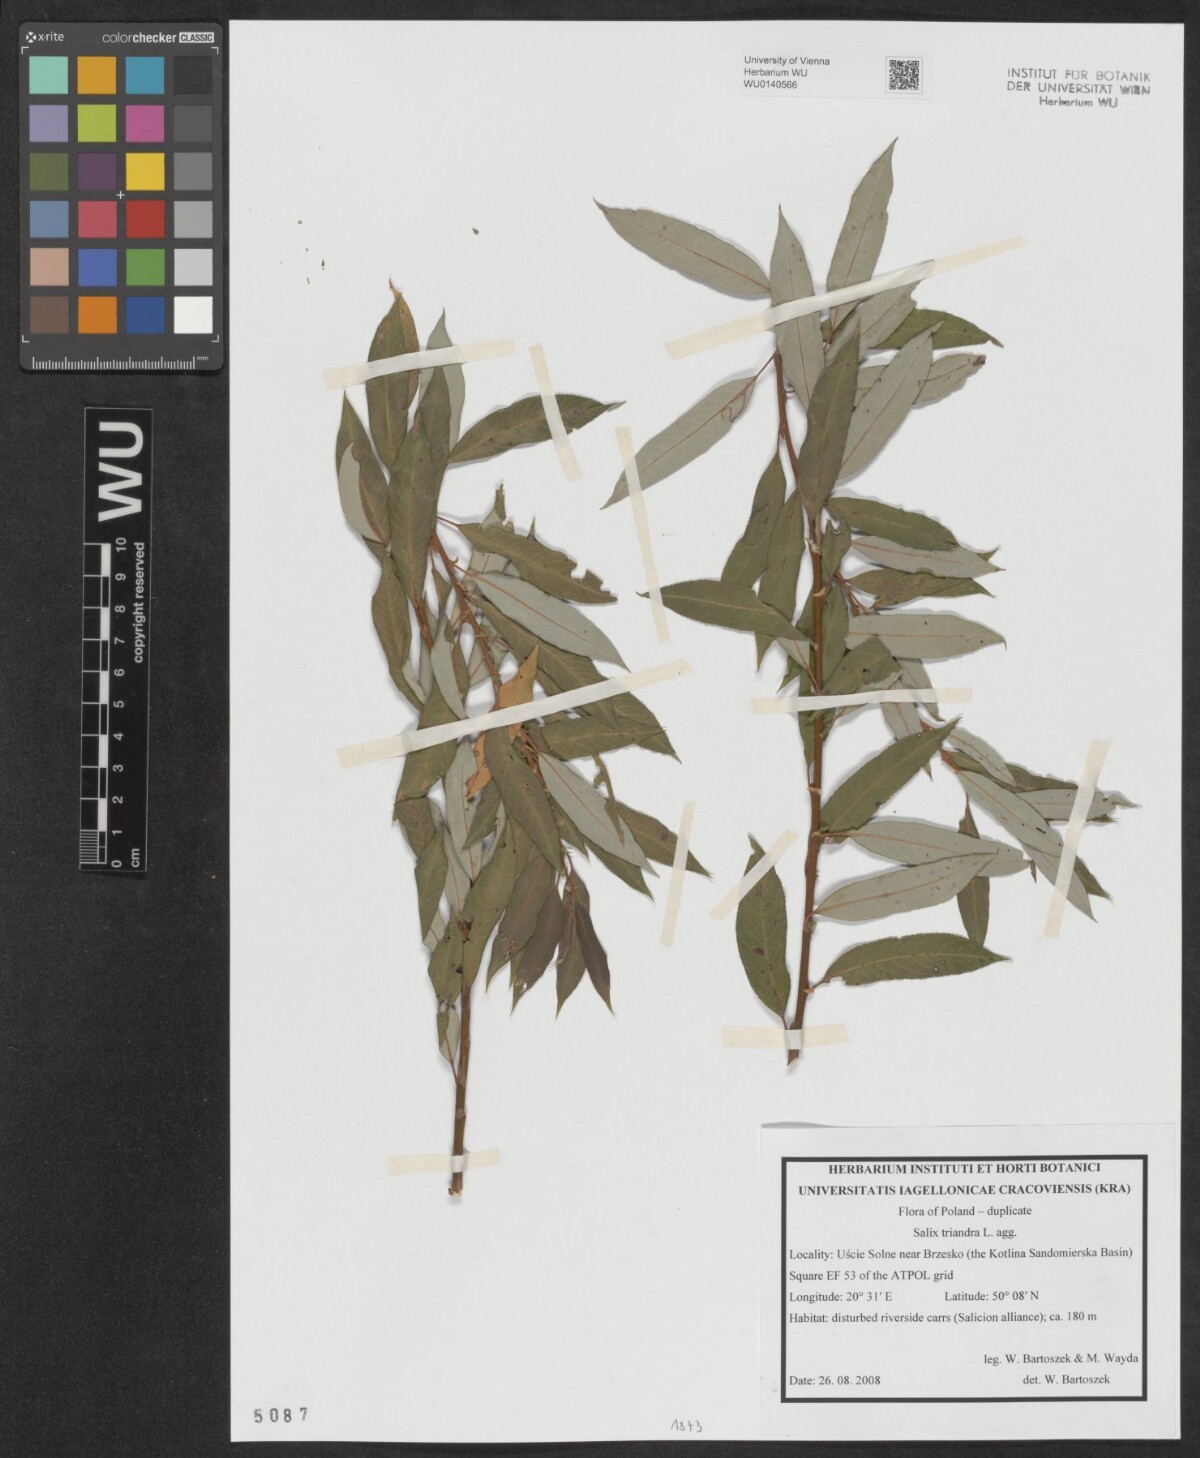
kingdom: Plantae
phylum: Tracheophyta
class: Magnoliopsida
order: Malpighiales
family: Salicaceae
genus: Salix
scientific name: Salix triandra
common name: Almond willow
